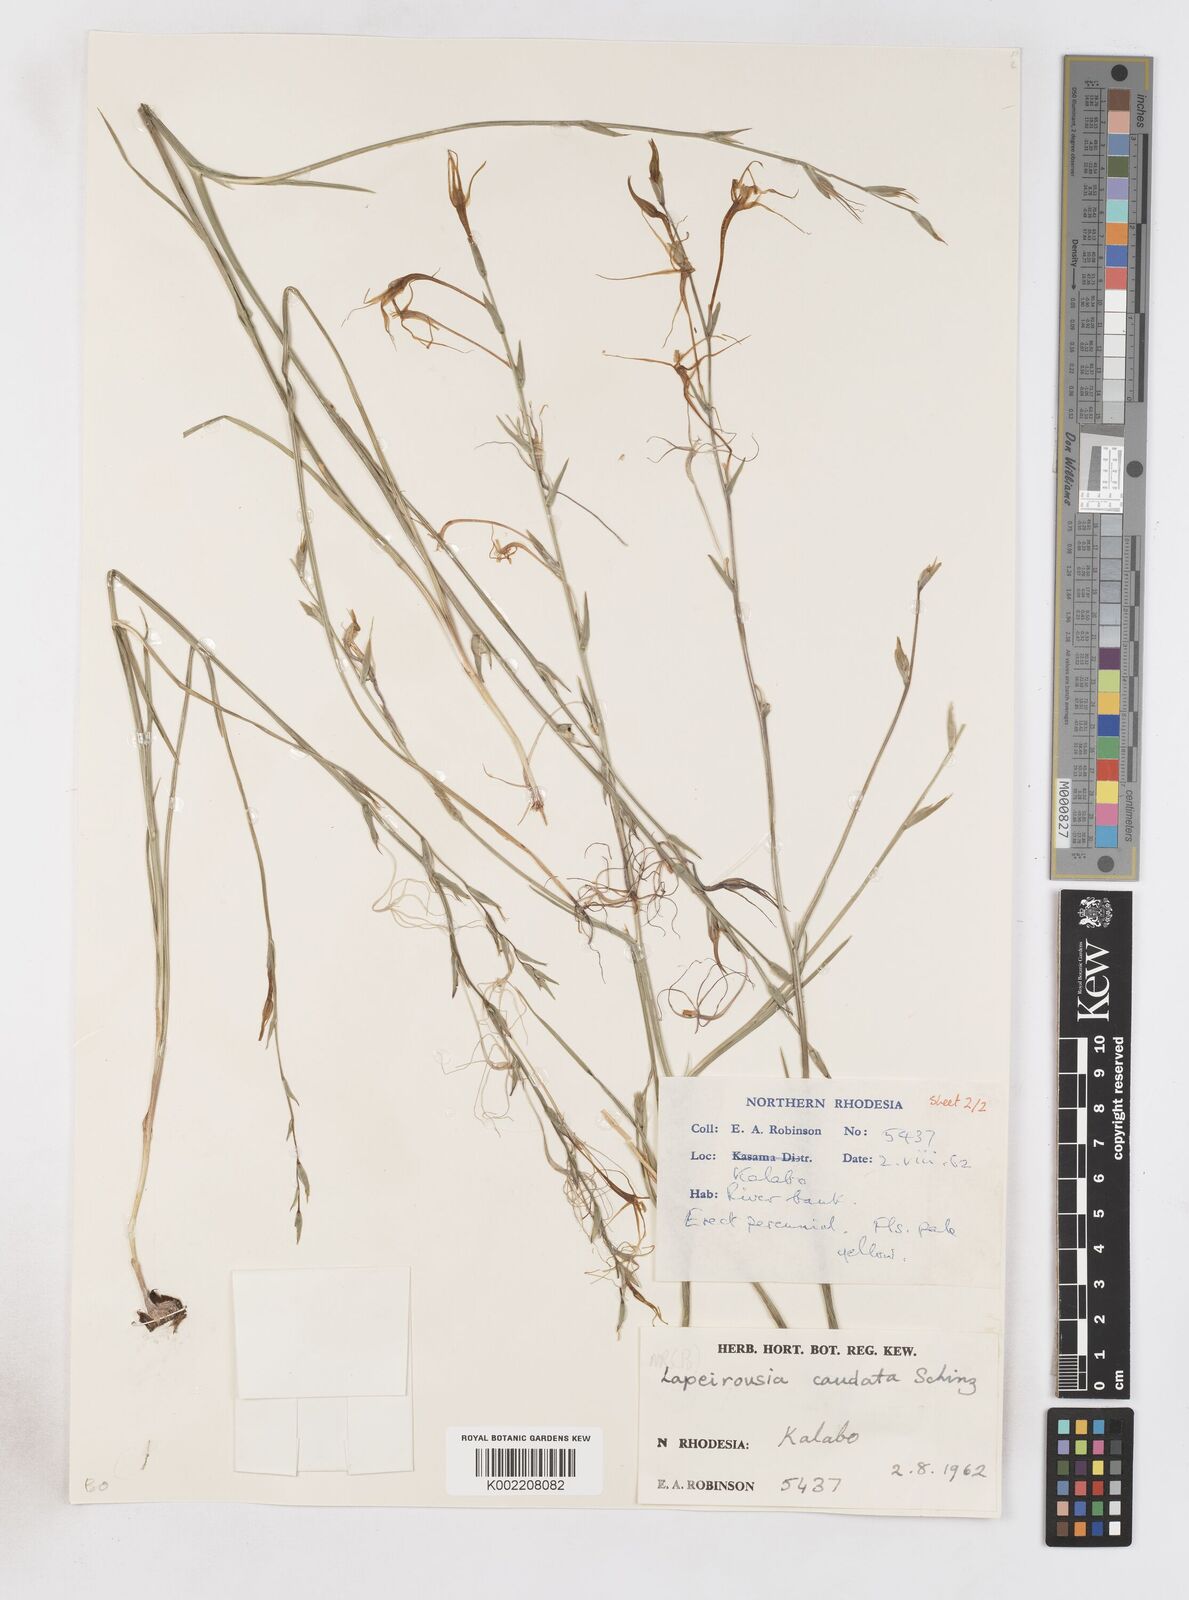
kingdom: Plantae
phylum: Tracheophyta
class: Liliopsida
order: Asparagales
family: Iridaceae
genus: Lapeirousia
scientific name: Lapeirousia caudata
